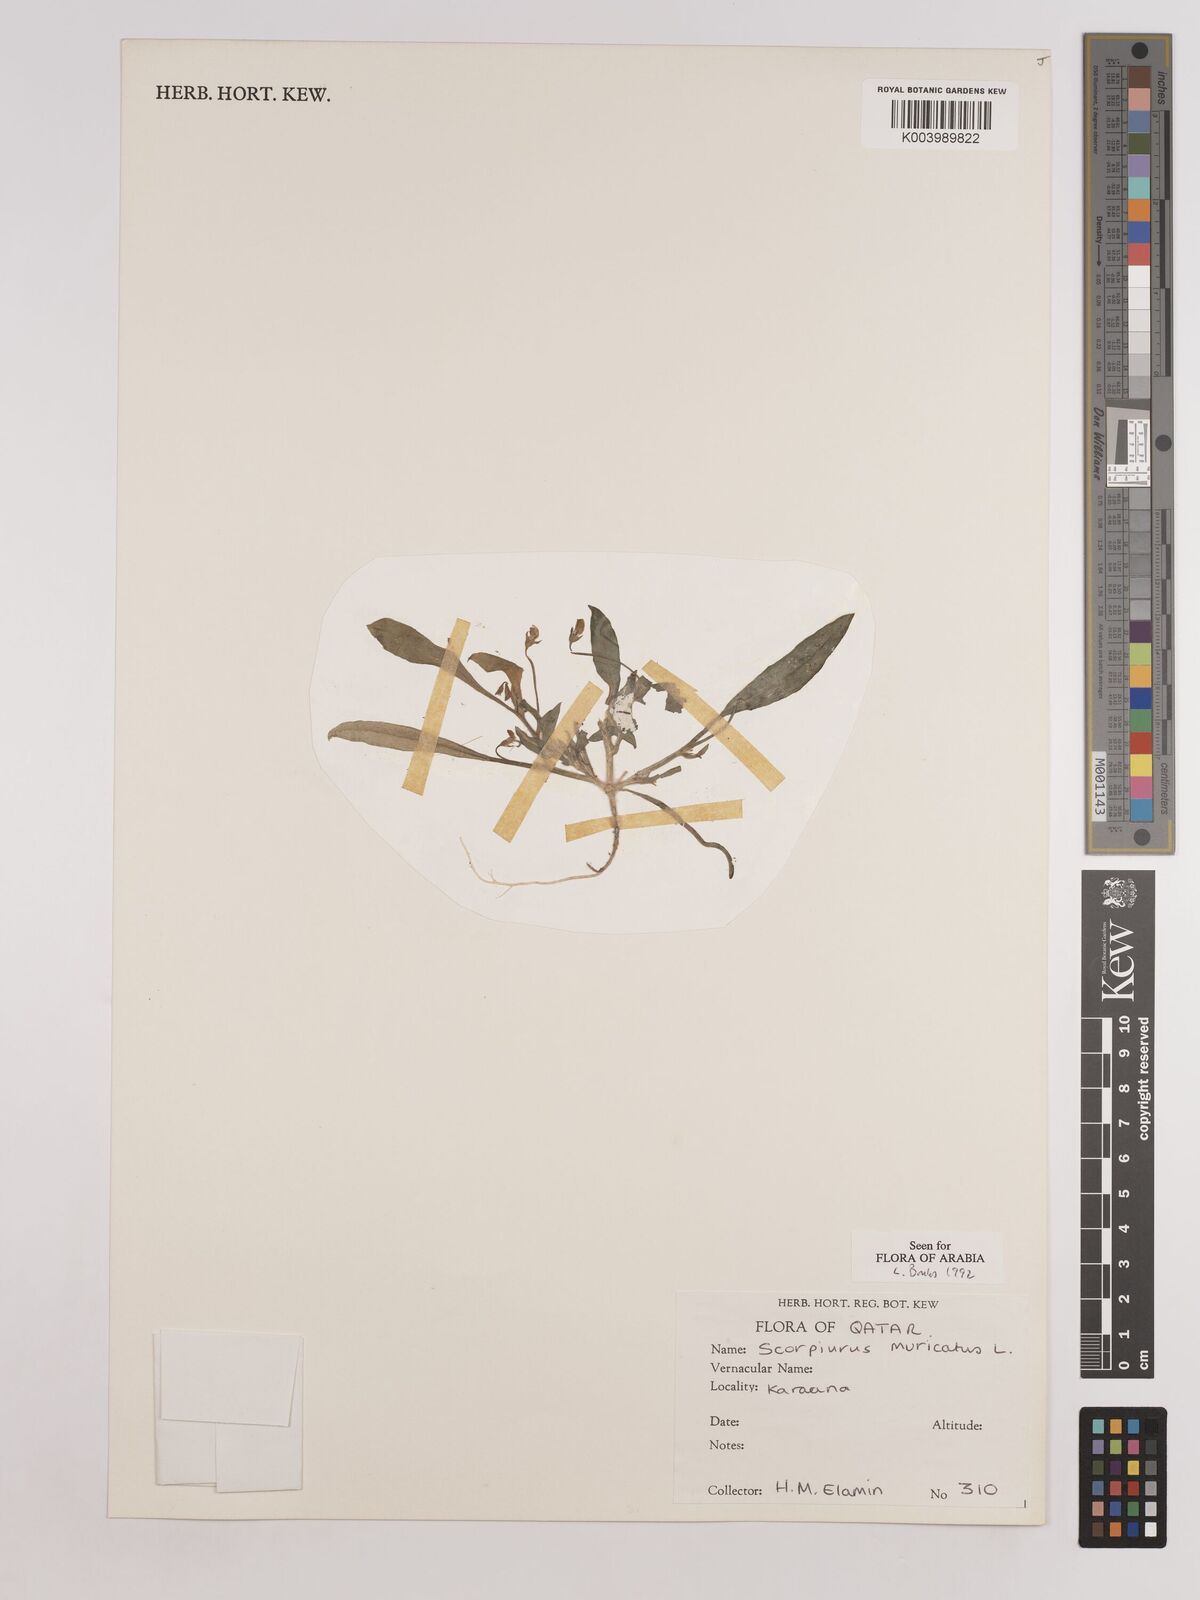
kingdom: Plantae
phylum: Tracheophyta
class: Magnoliopsida
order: Fabales
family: Fabaceae
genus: Scorpiurus
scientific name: Scorpiurus muricatus
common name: Caterpillar-plant
